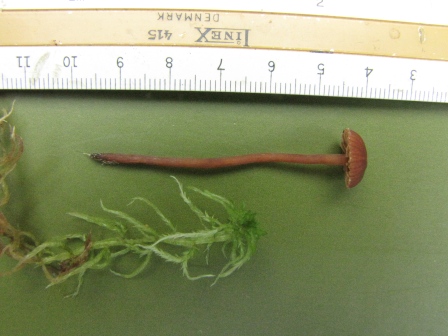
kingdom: Fungi
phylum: Basidiomycota
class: Agaricomycetes
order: Agaricales
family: Hymenogastraceae
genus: Galerina
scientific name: Galerina stagnina
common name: sortfodet hjelmhat
